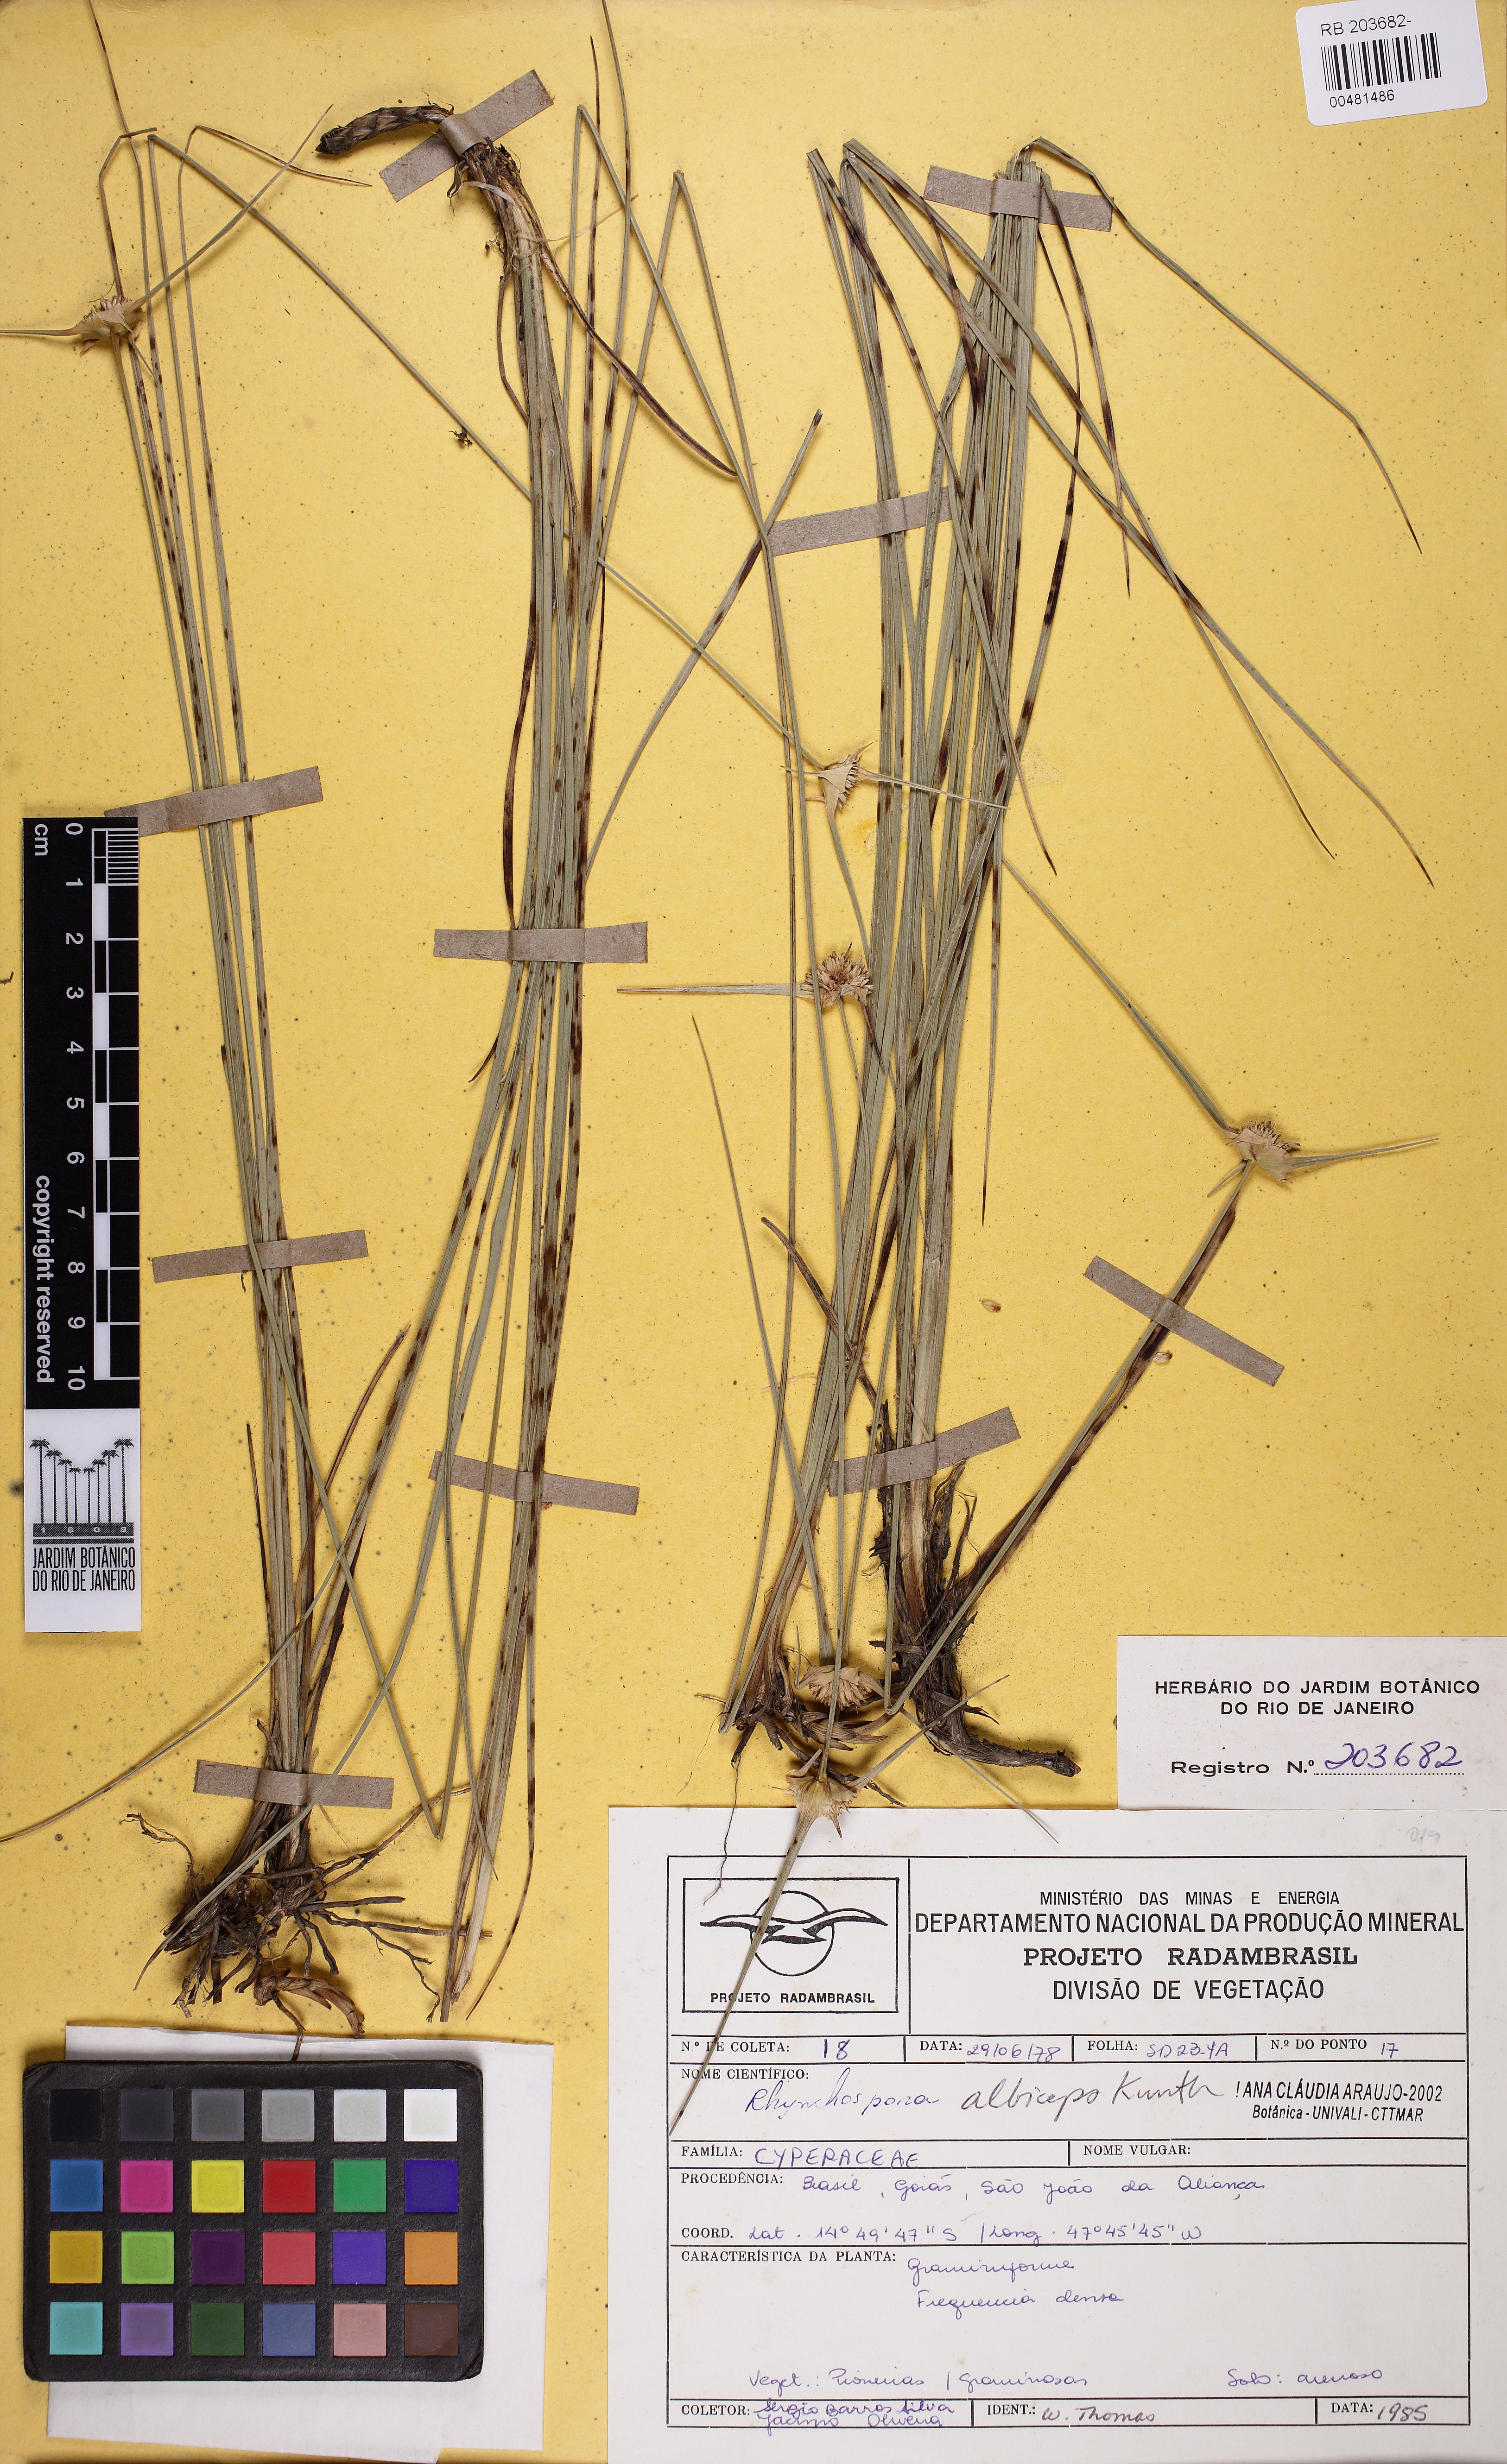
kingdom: Plantae
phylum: Tracheophyta
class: Liliopsida
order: Poales
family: Cyperaceae
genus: Rhynchospora
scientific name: Rhynchospora albiceps
